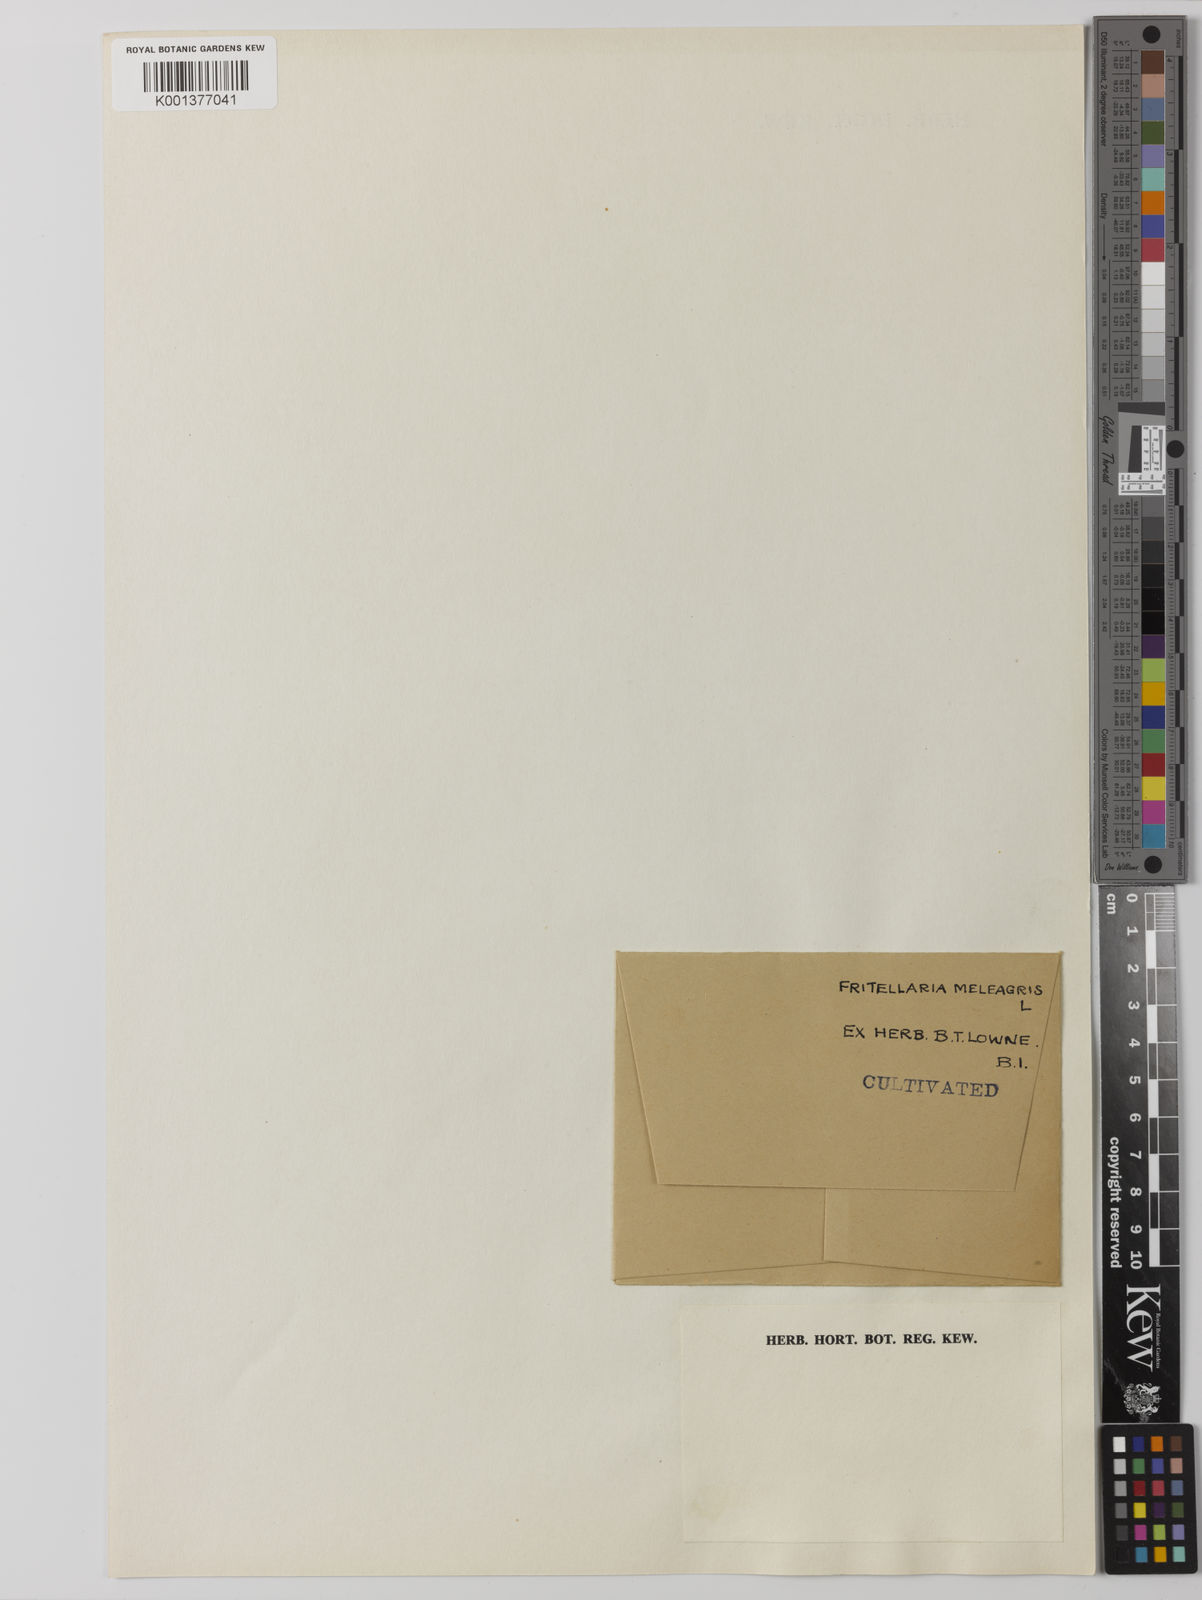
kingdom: Plantae
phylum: Tracheophyta
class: Liliopsida
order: Liliales
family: Liliaceae
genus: Fritillaria
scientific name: Fritillaria meleagris
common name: Fritillary
